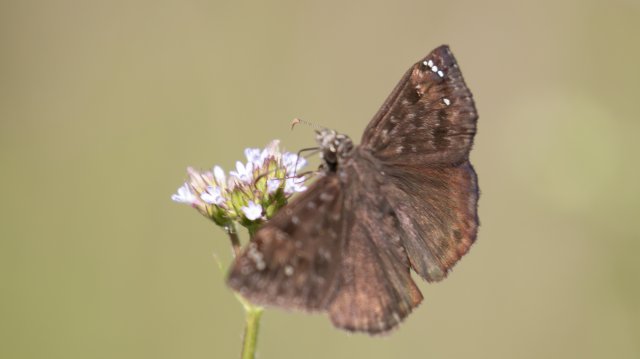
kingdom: Animalia
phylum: Arthropoda
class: Insecta
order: Lepidoptera
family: Hesperiidae
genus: Gesta
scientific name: Gesta
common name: Horace's Duskywing
